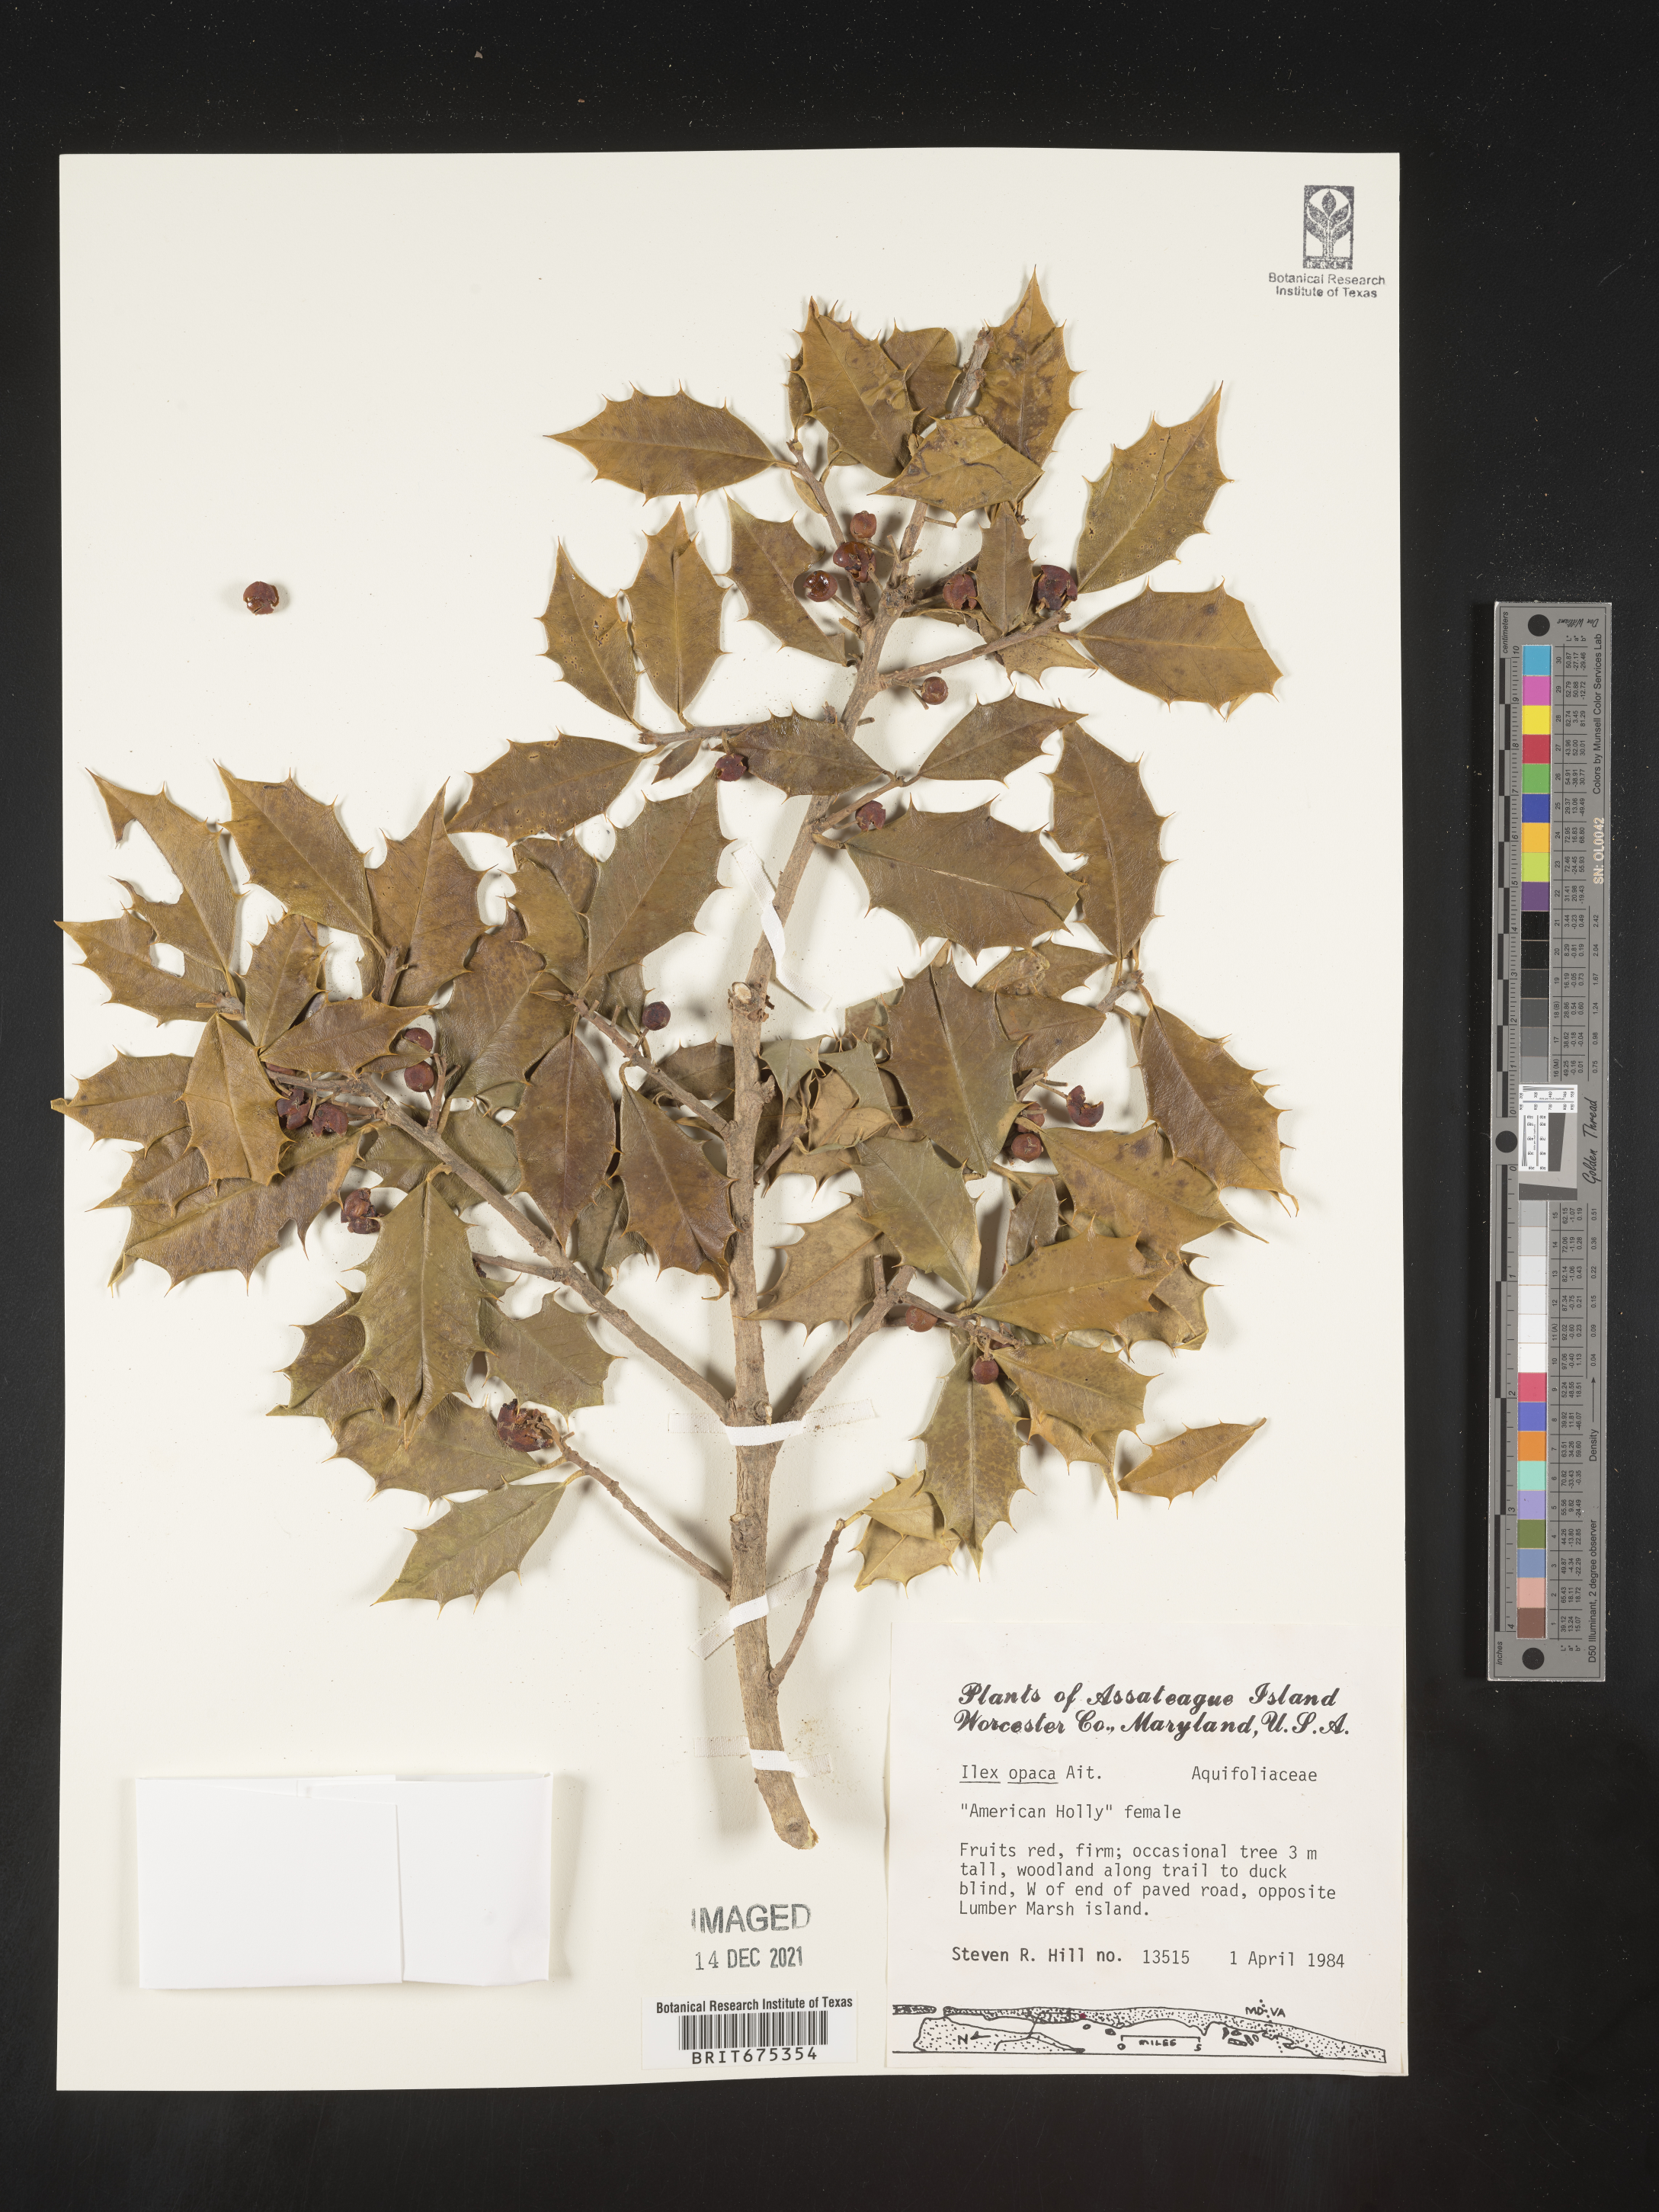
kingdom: Plantae
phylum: Tracheophyta
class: Magnoliopsida
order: Aquifoliales
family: Aquifoliaceae
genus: Ilex
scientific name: Ilex opaca
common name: American holly
